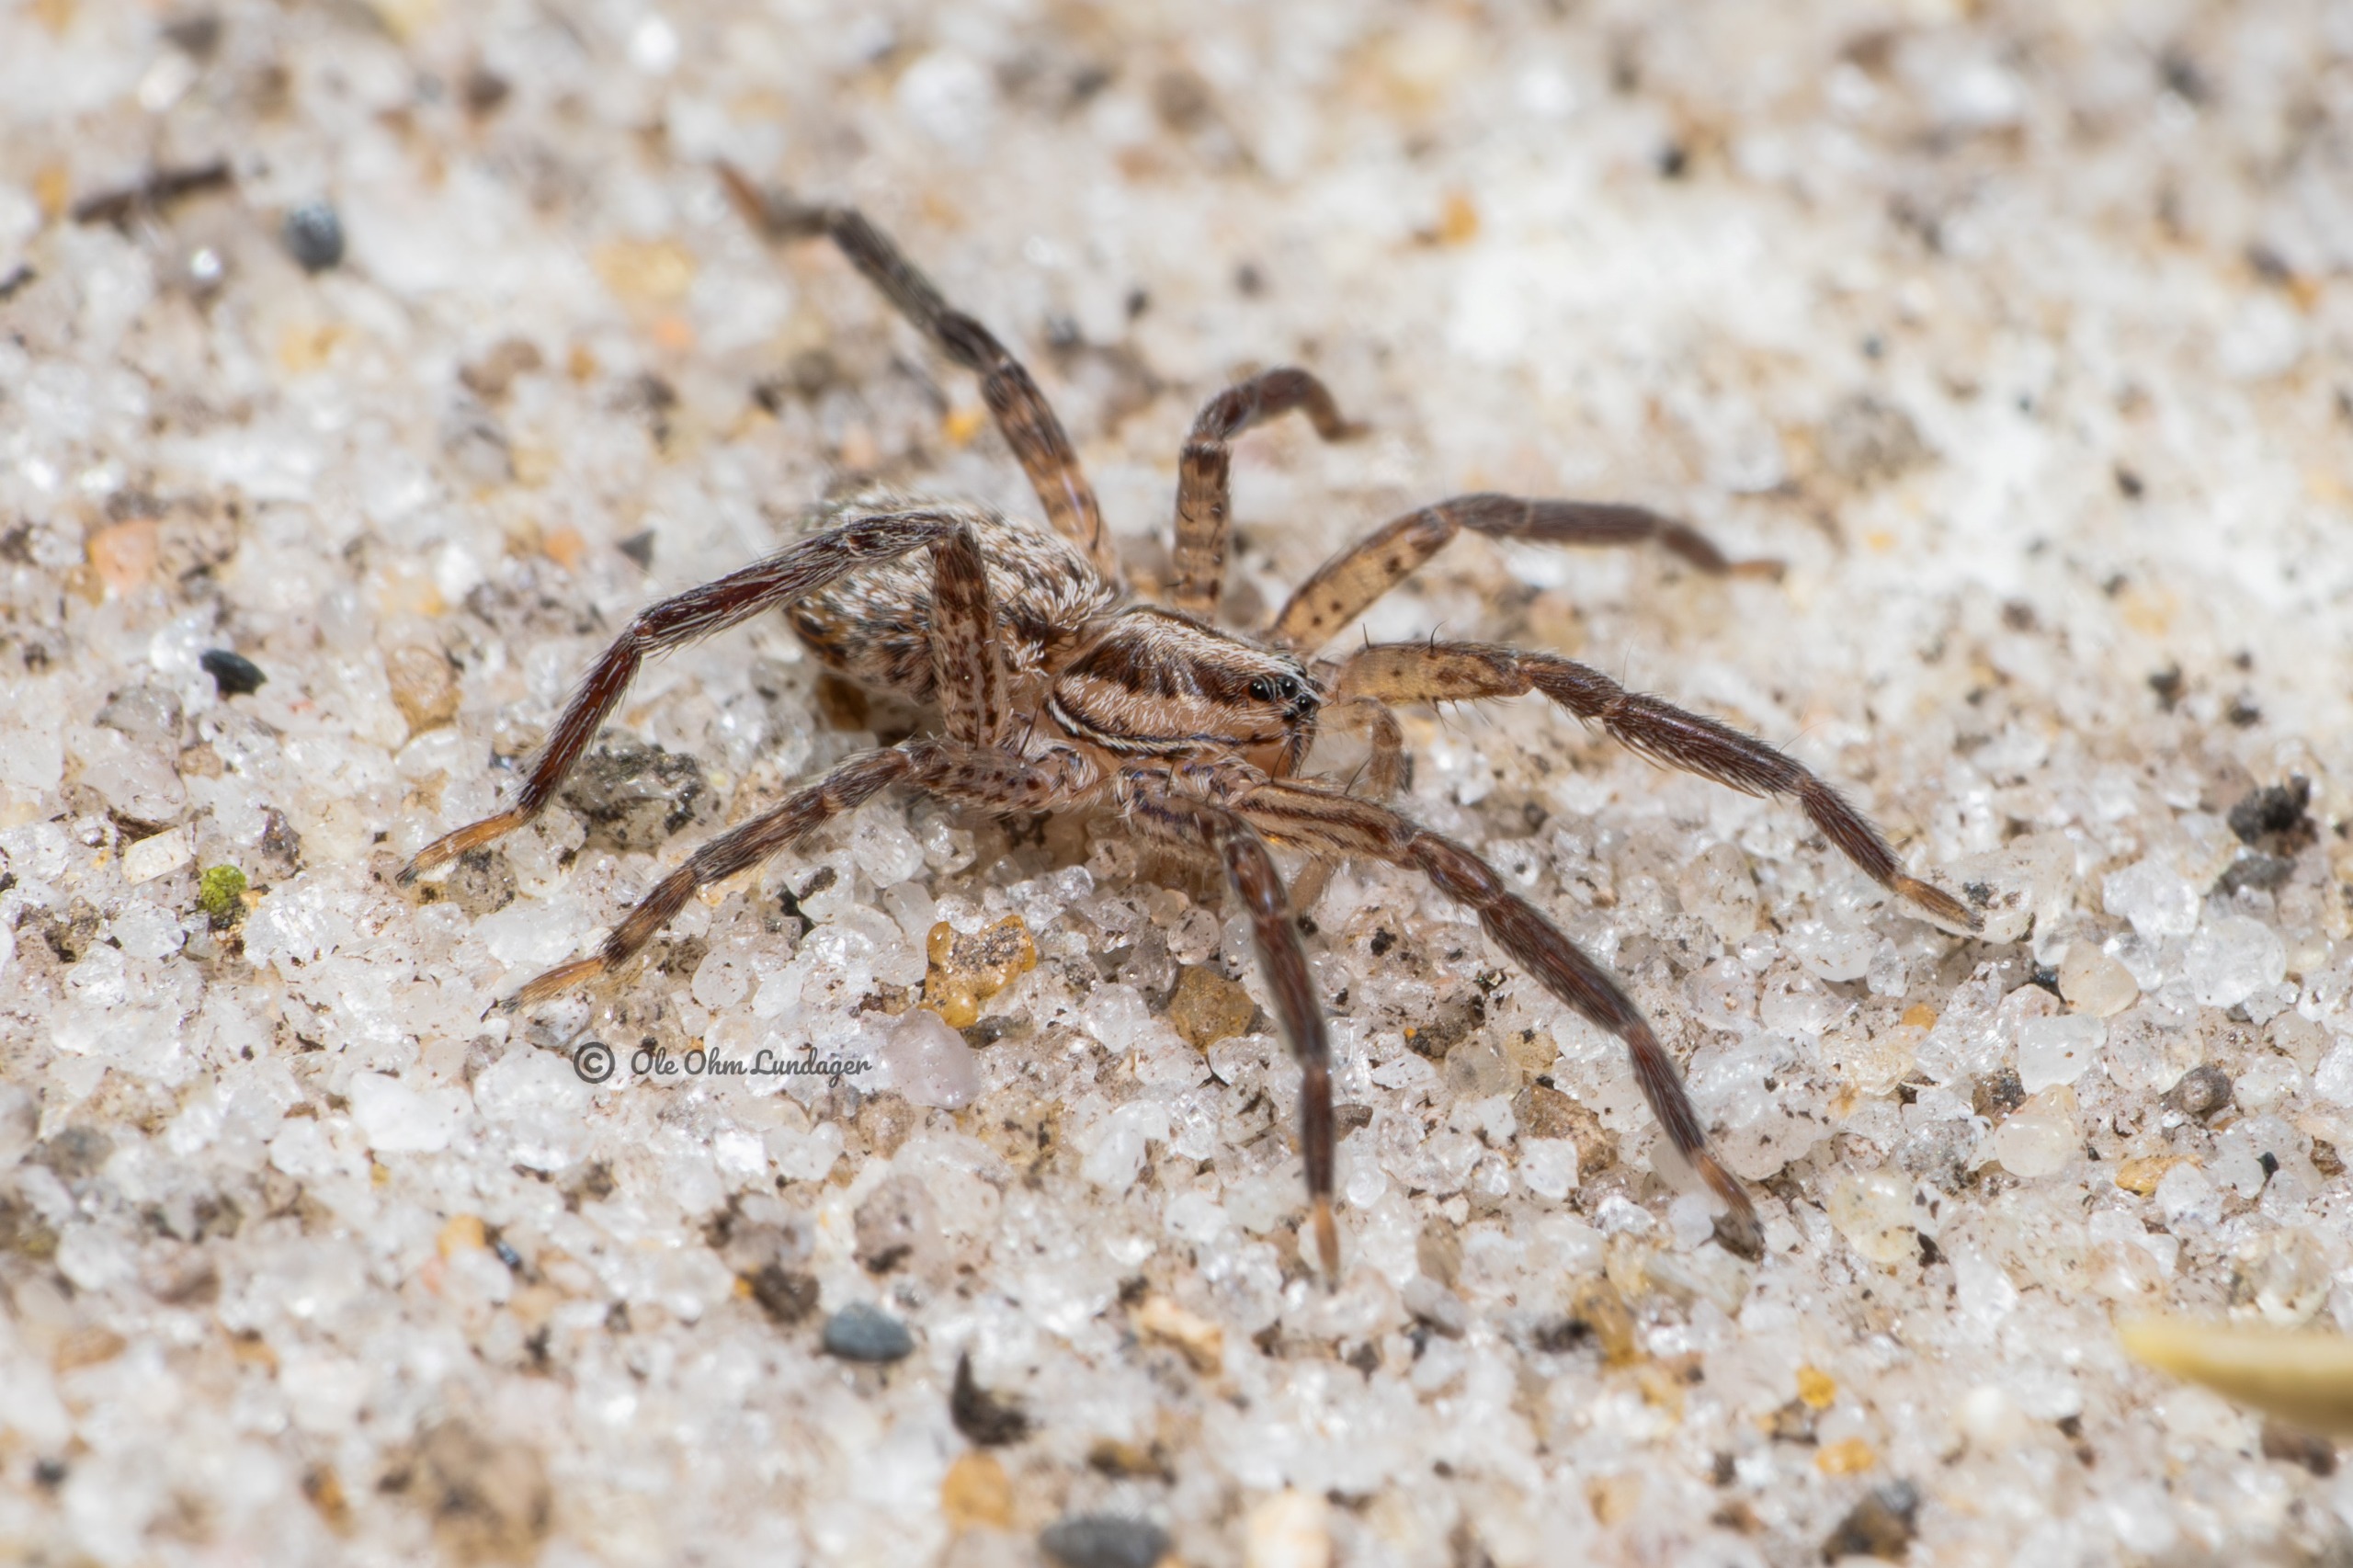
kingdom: Animalia
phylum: Arthropoda
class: Arachnida
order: Araneae
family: Miturgidae
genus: Zora
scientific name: Zora silvestris
